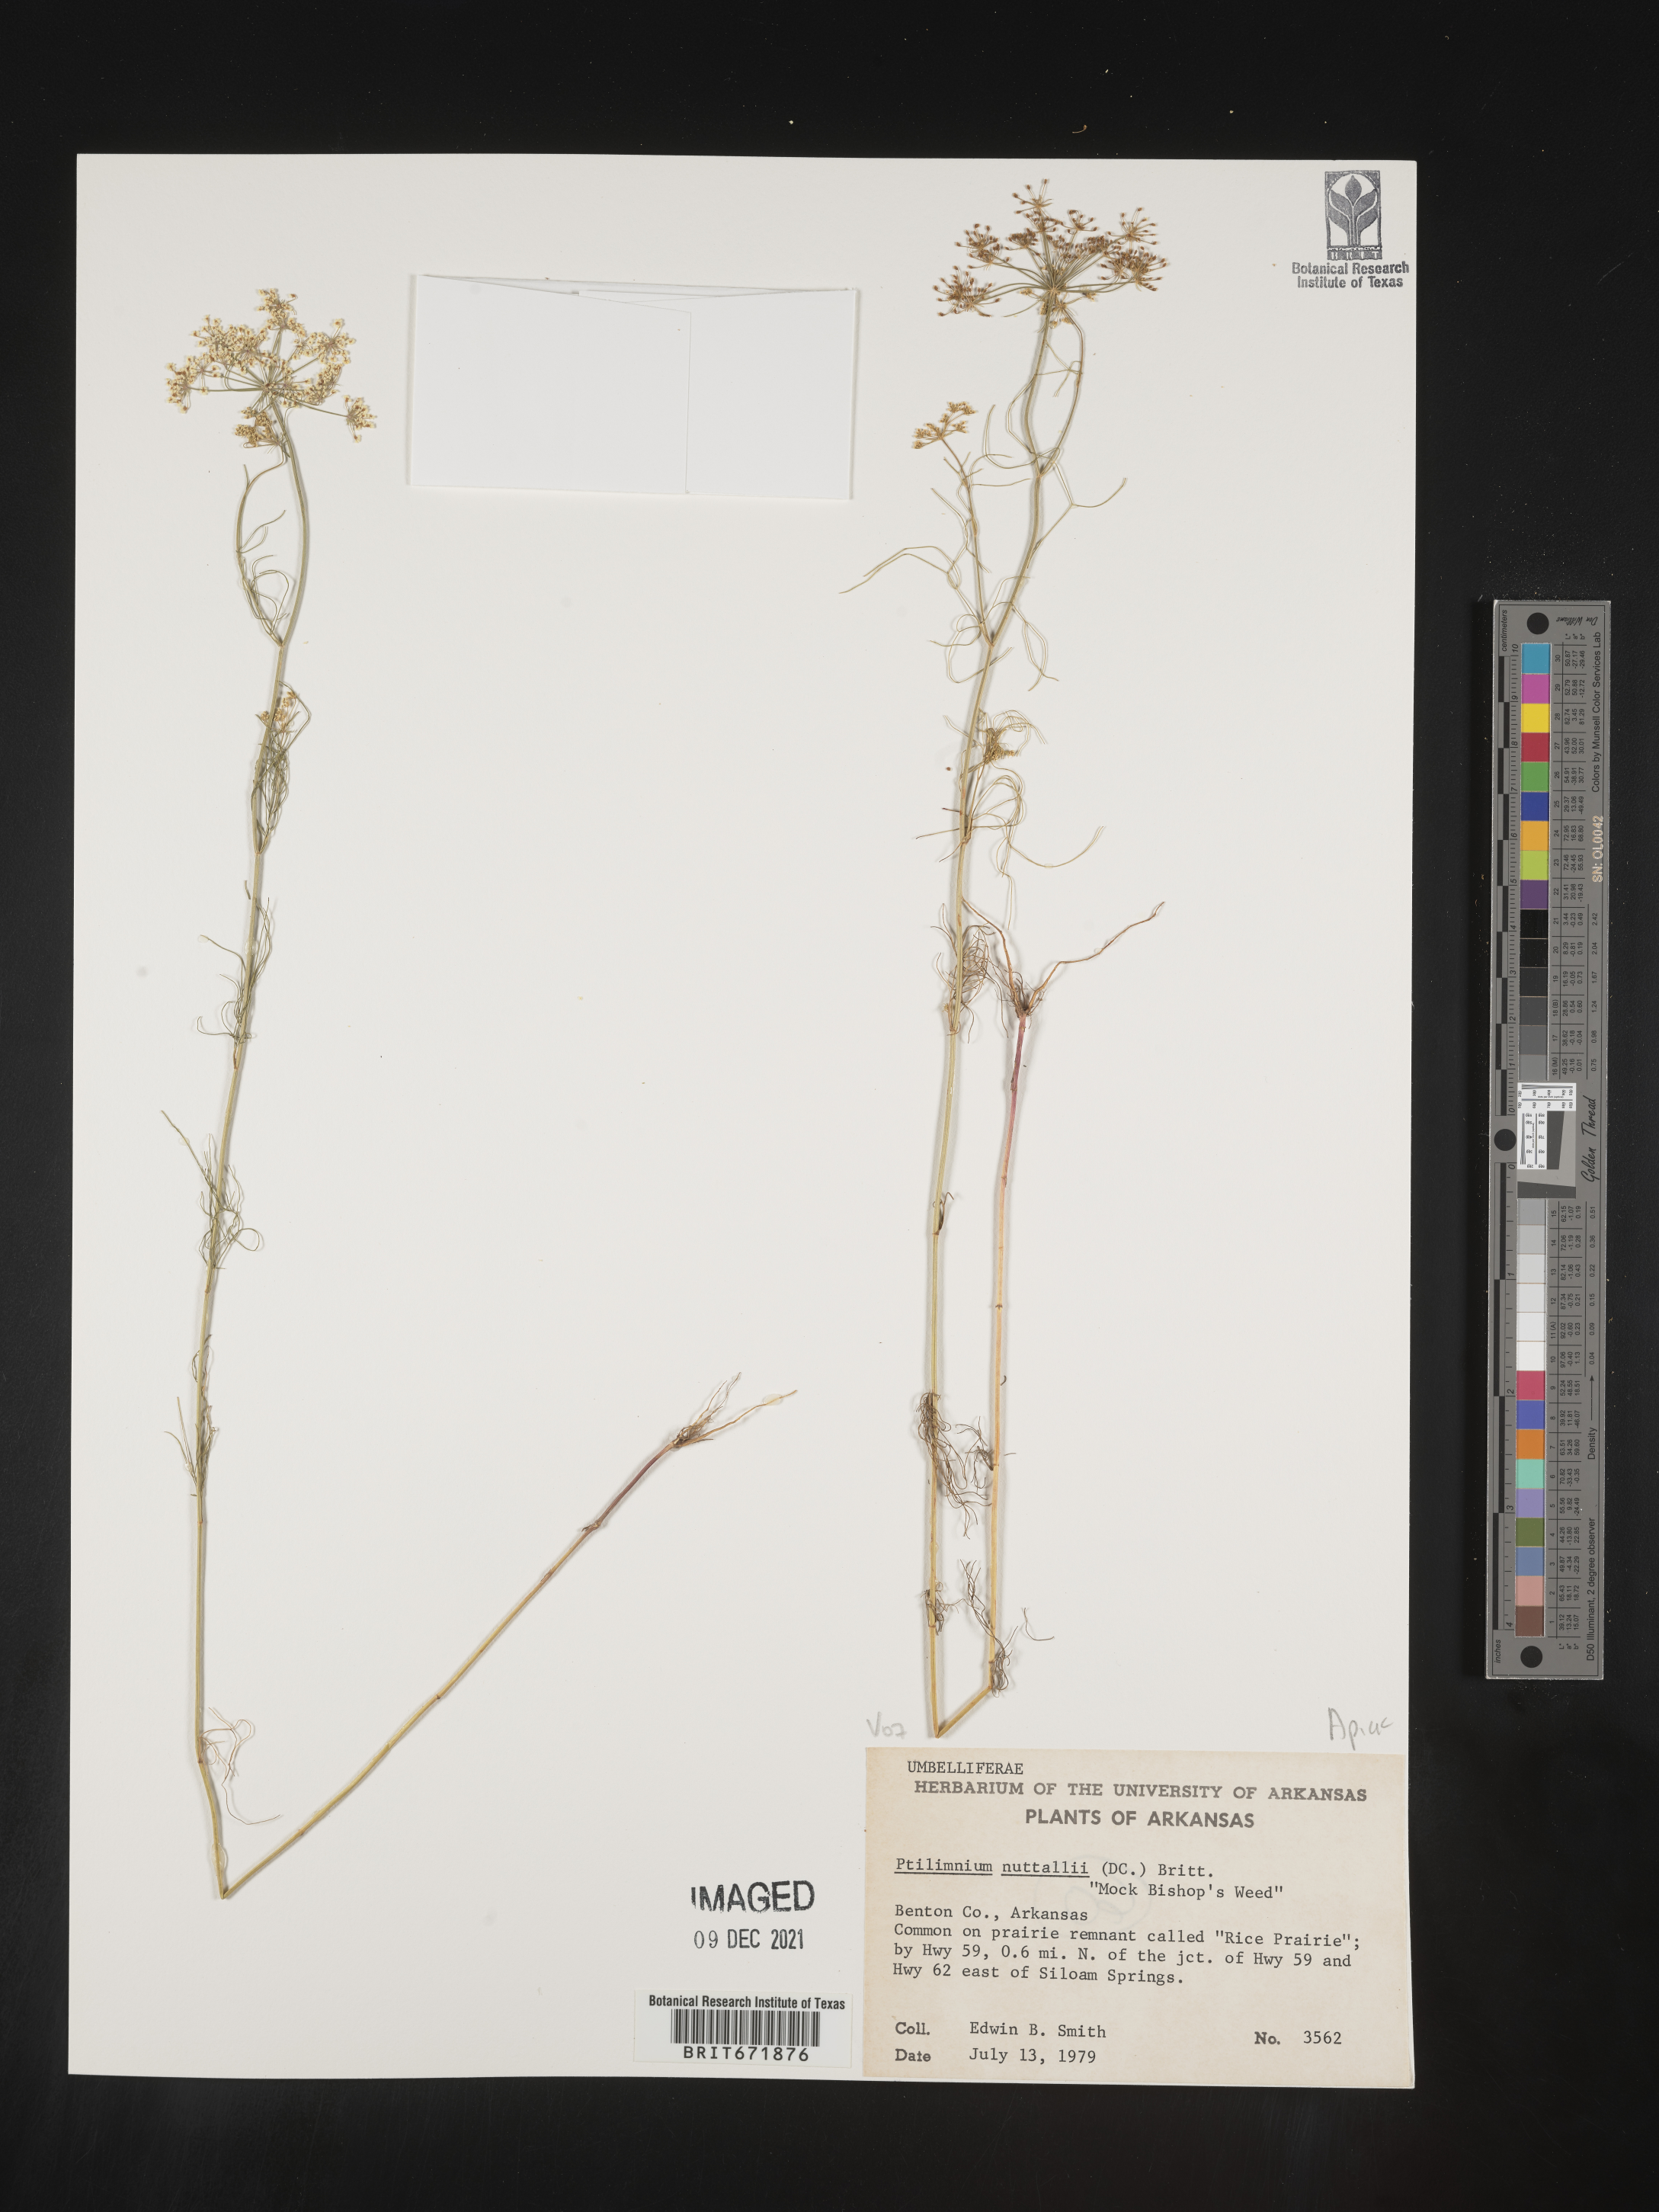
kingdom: Plantae
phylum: Tracheophyta
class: Magnoliopsida
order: Apiales
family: Apiaceae
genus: Ptilimnium
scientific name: Ptilimnium nuttallii
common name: Ozark bishop's-weed
